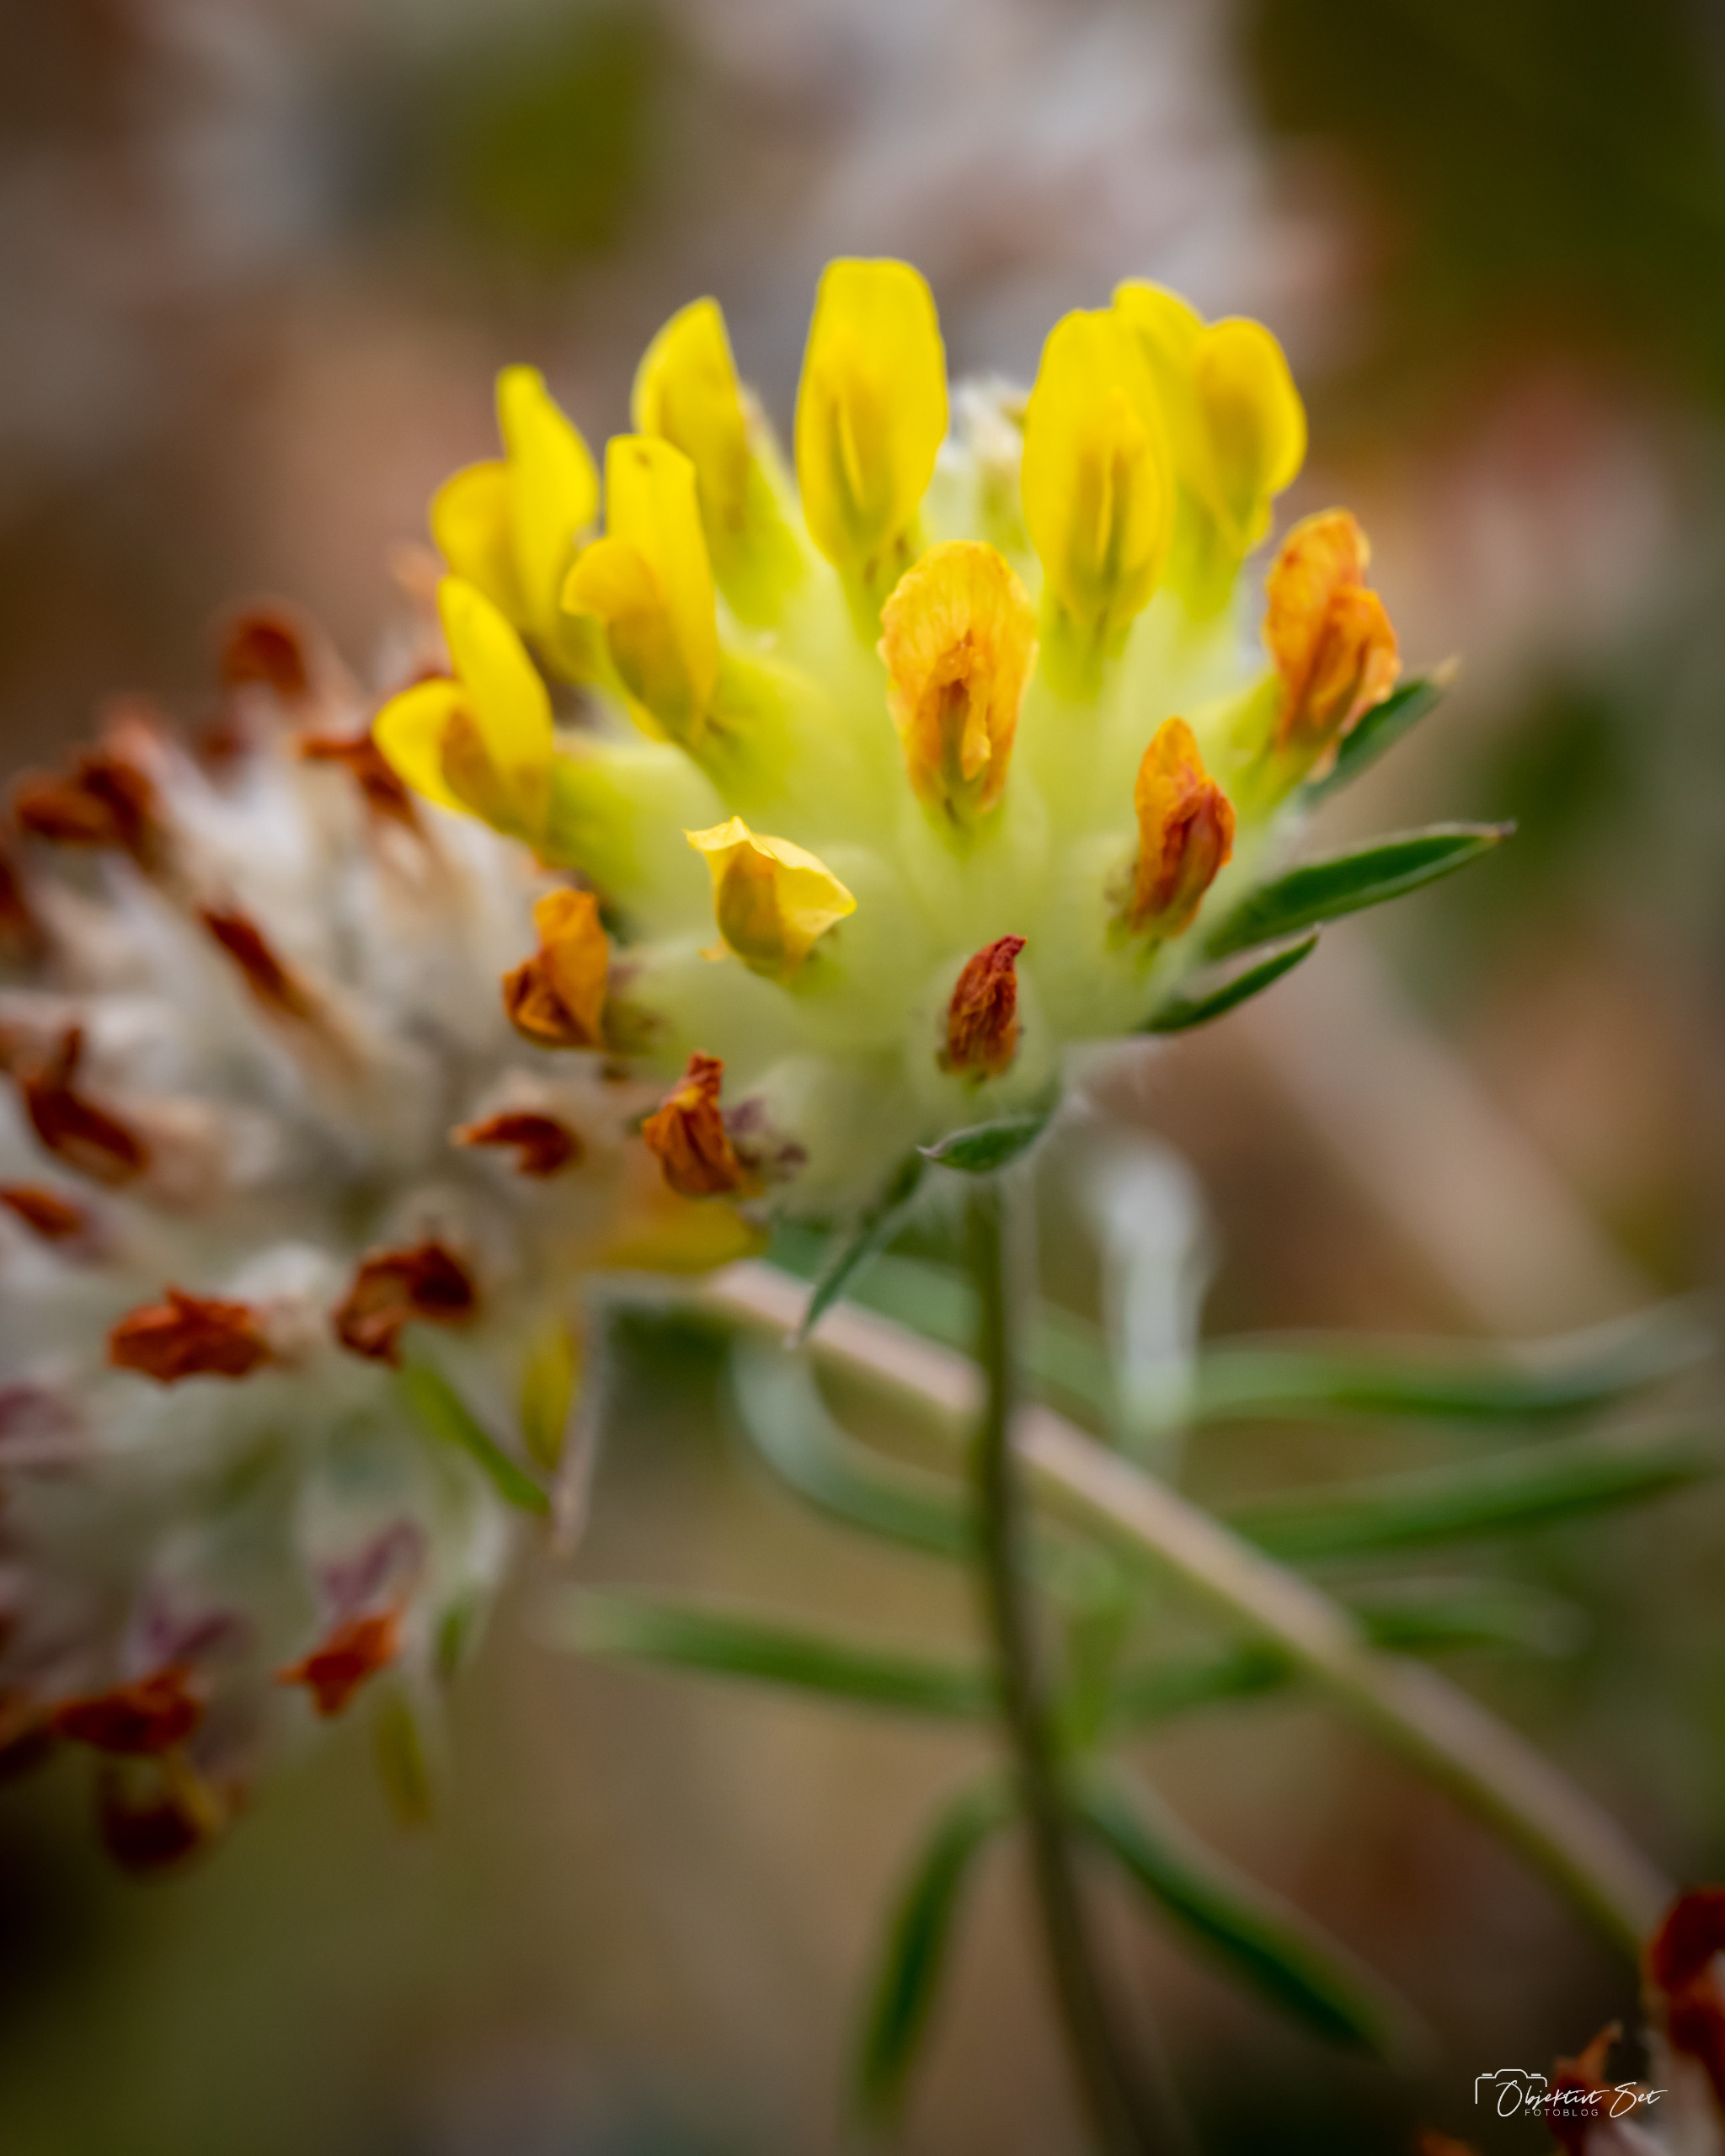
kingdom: Plantae
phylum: Tracheophyta
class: Magnoliopsida
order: Fabales
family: Fabaceae
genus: Anthyllis
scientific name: Anthyllis vulneraria
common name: Rundbælg
